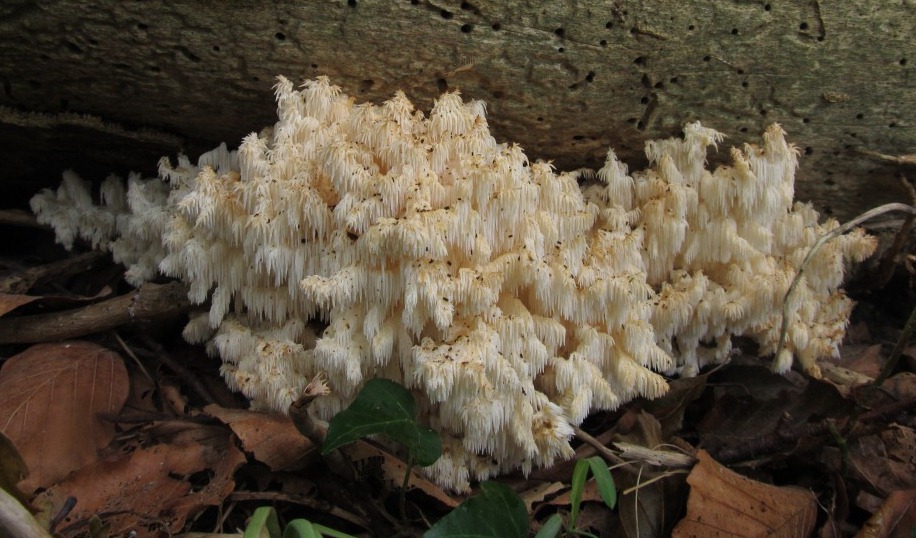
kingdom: Fungi
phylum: Basidiomycota
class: Agaricomycetes
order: Russulales
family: Hericiaceae
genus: Hericium
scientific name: Hericium coralloides
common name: koralpigsvamp
